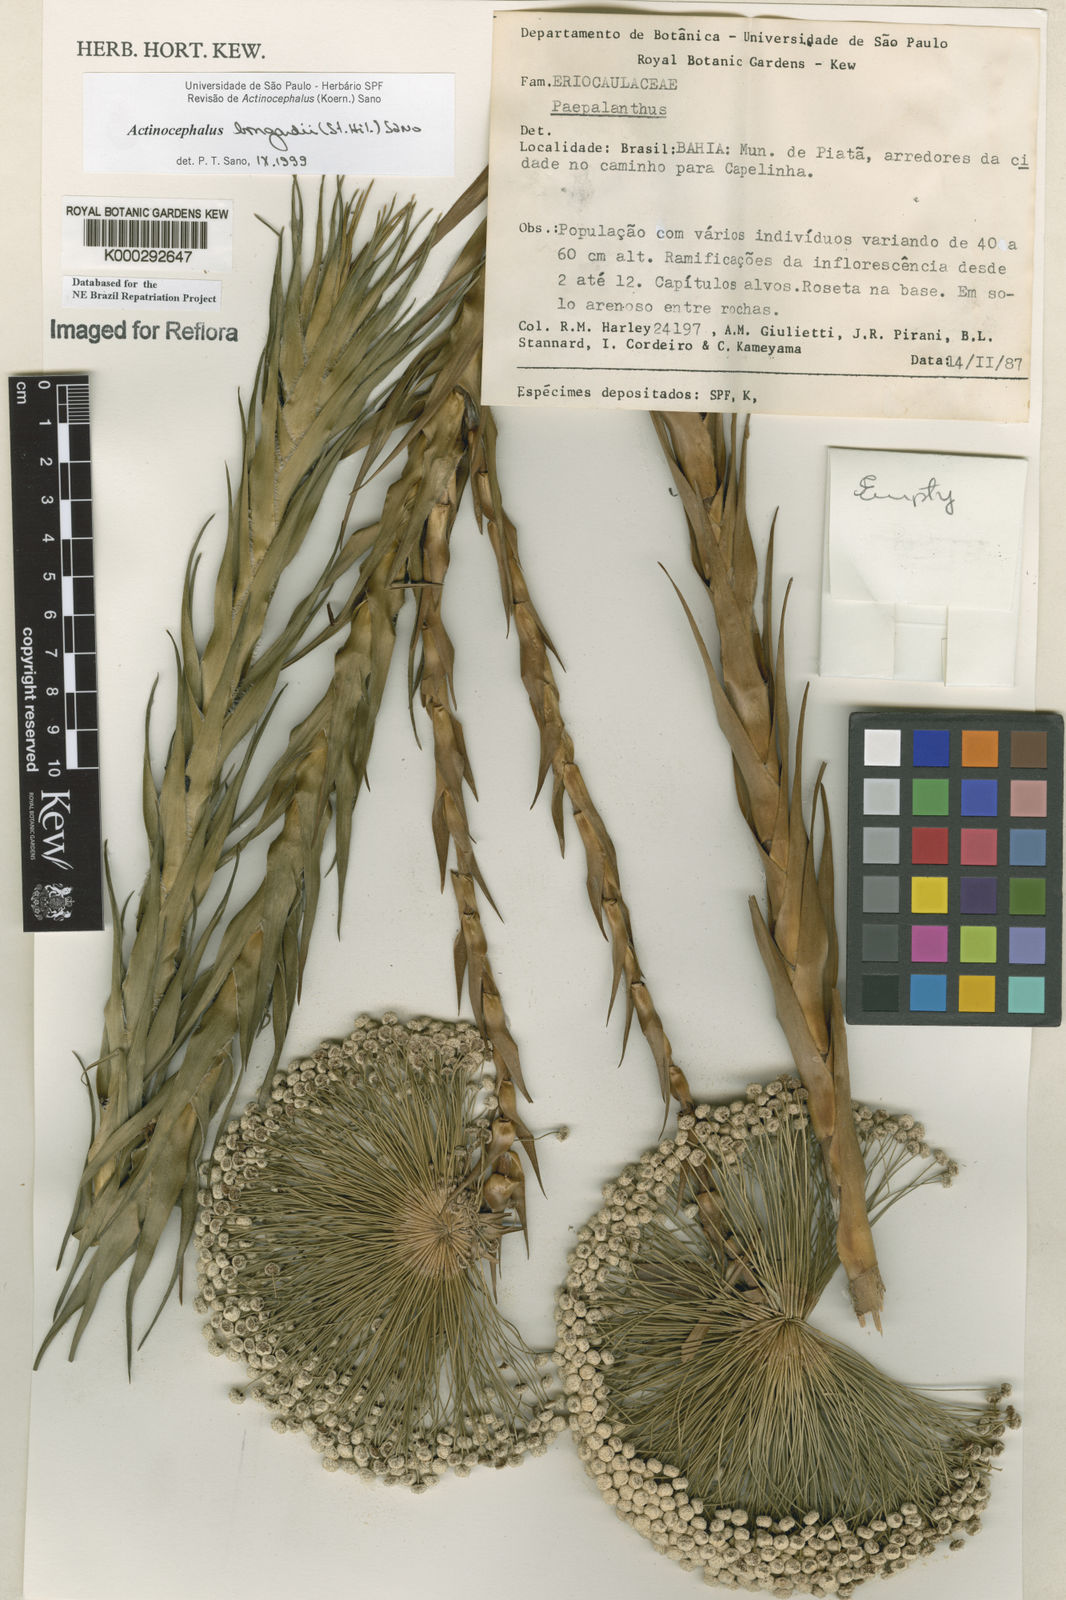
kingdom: Plantae
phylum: Tracheophyta
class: Liliopsida
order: Poales
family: Eriocaulaceae
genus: Paepalanthus
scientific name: Paepalanthus hilairei
